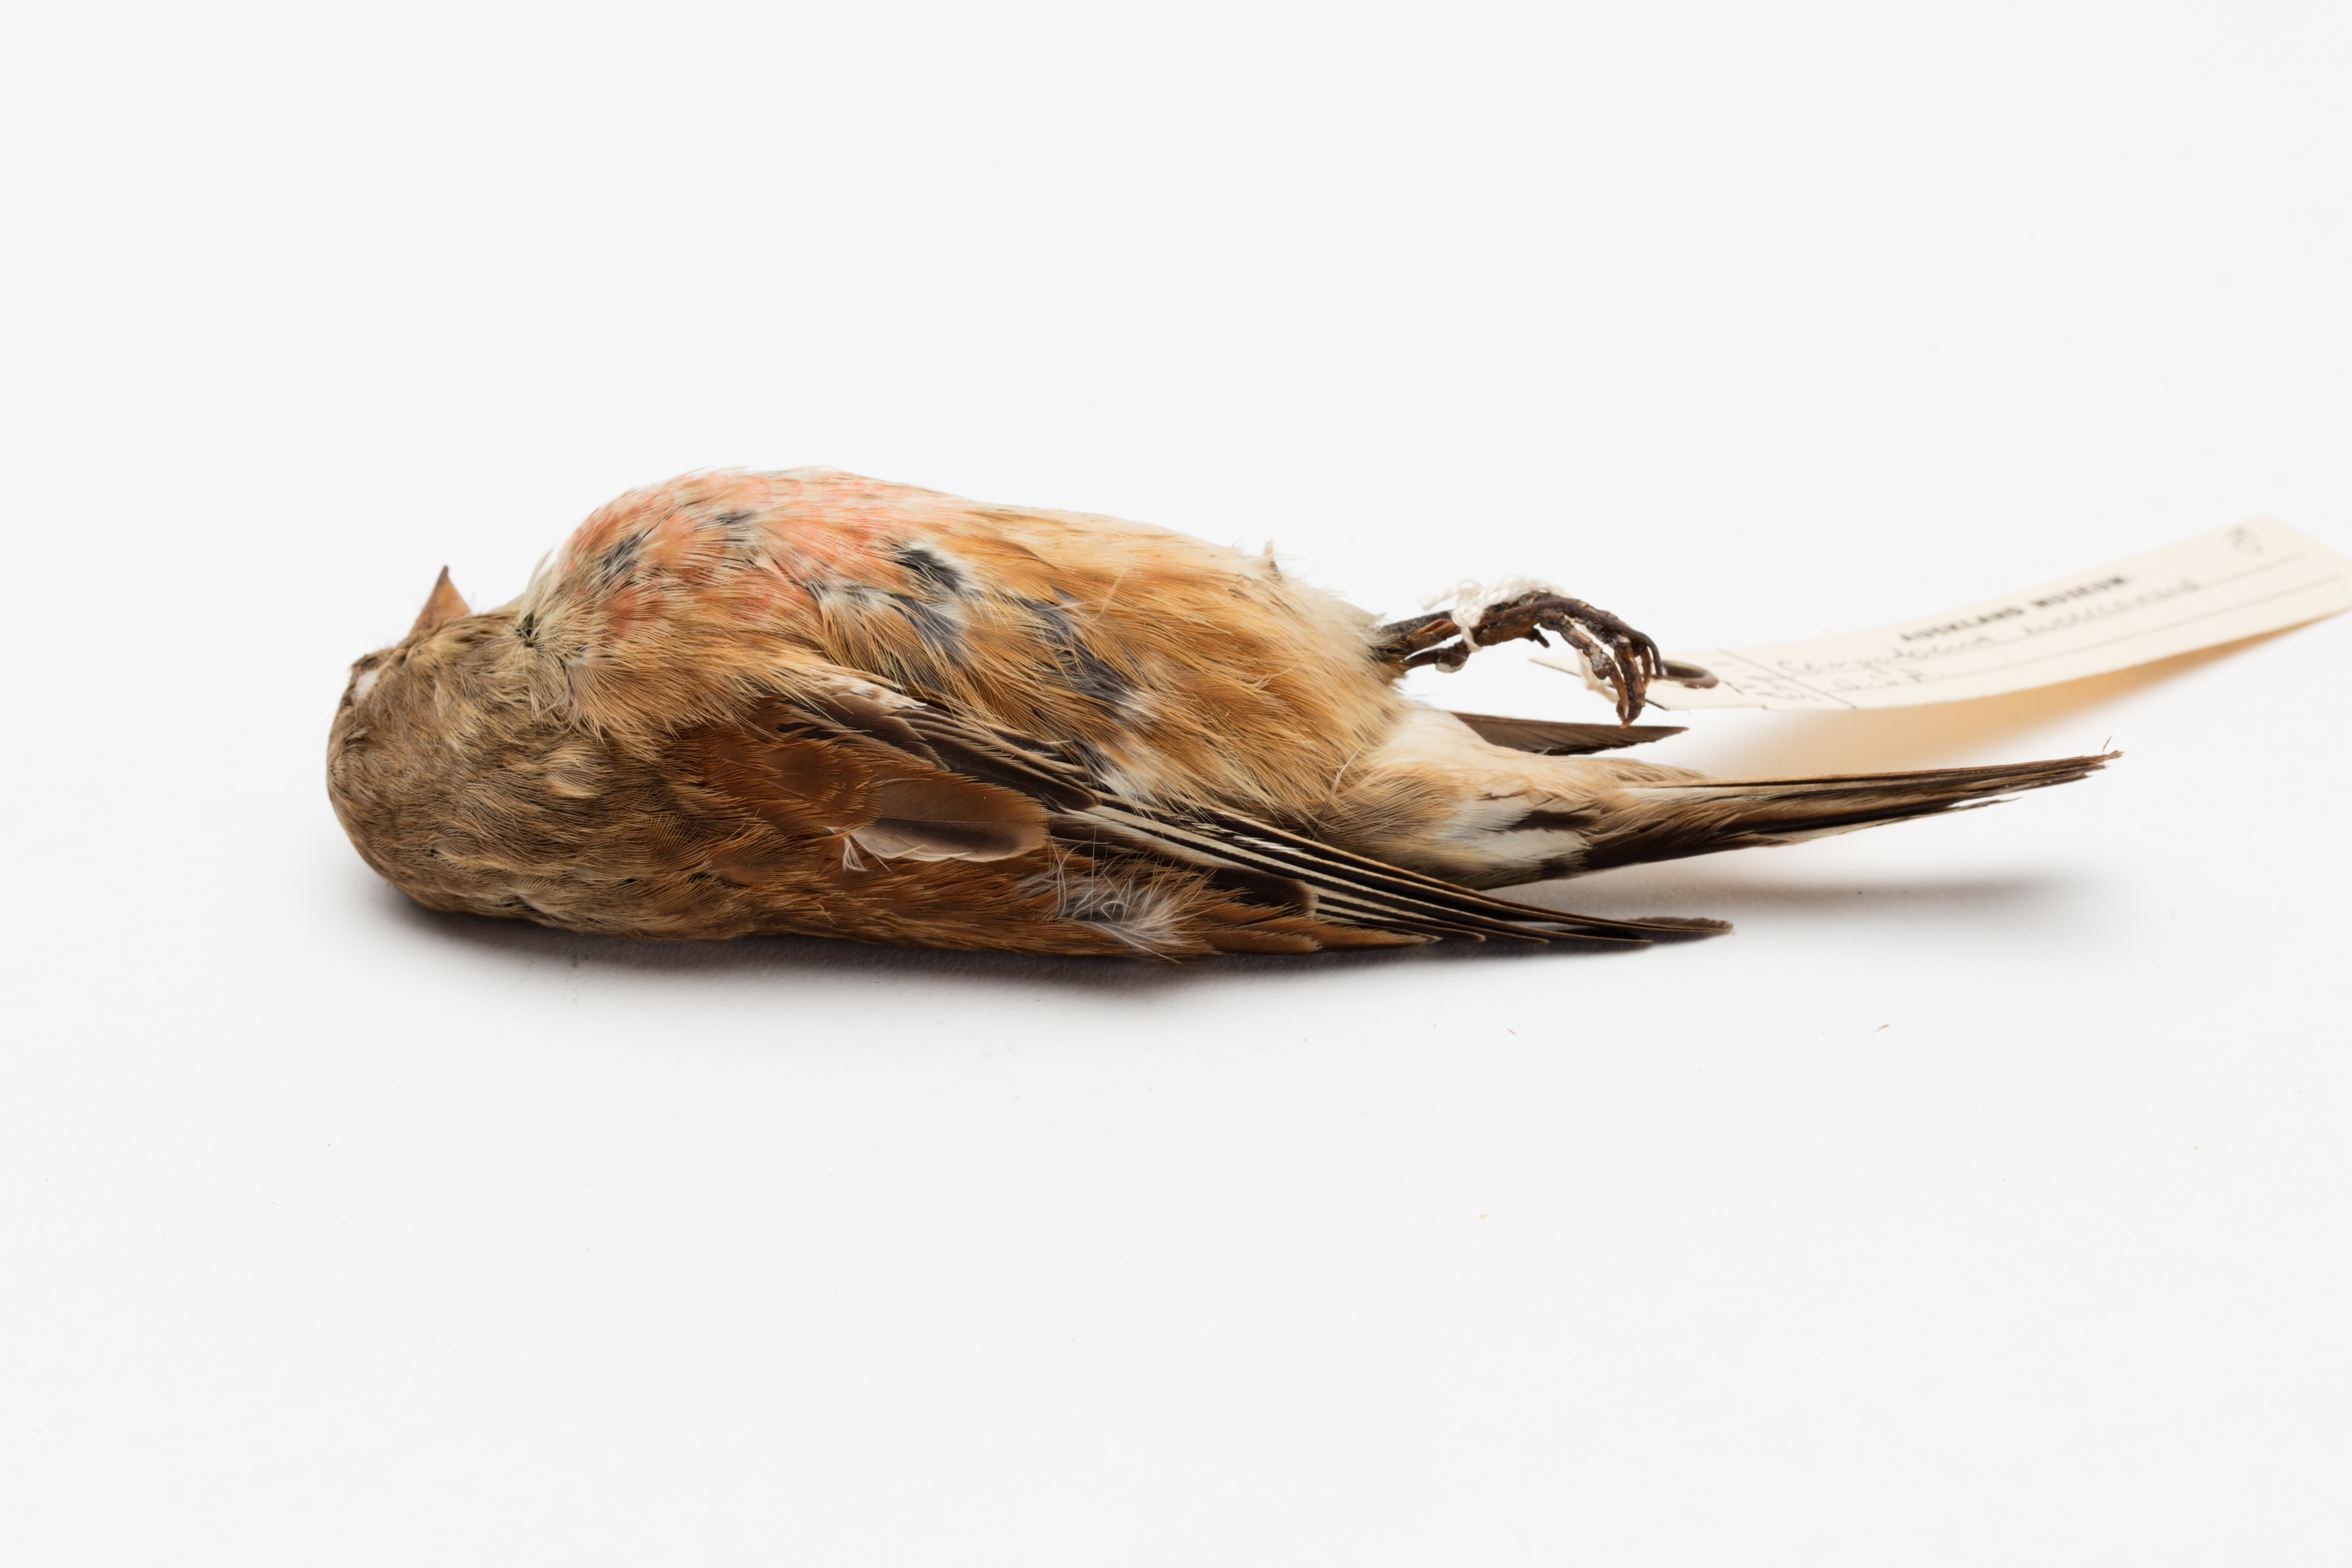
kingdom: Animalia
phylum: Chordata
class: Aves
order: Passeriformes
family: Fringillidae
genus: Haemorhous
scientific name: Haemorhous mexicanus
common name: House finch
